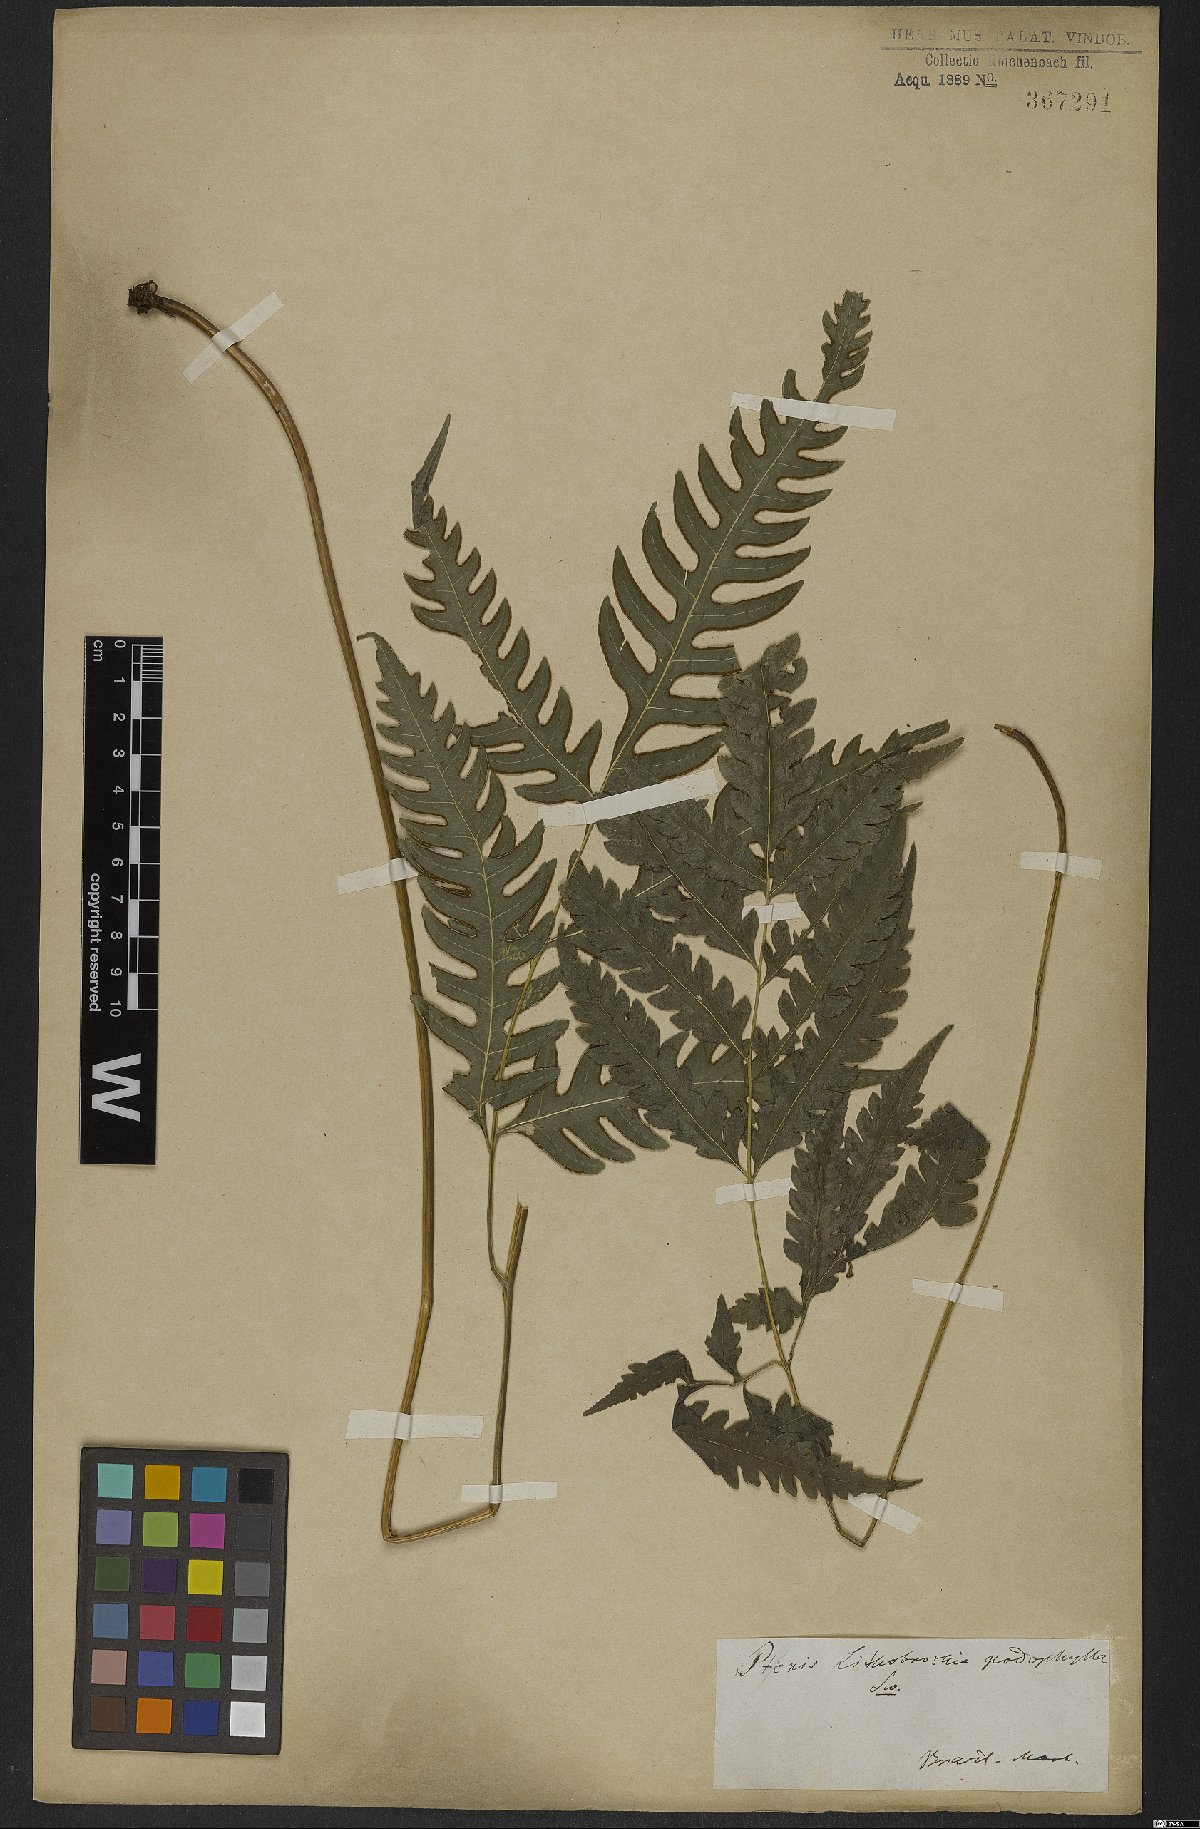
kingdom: Plantae
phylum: Tracheophyta
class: Polypodiopsida
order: Polypodiales
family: Pteridaceae
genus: Pteris
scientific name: Pteris podophylla
